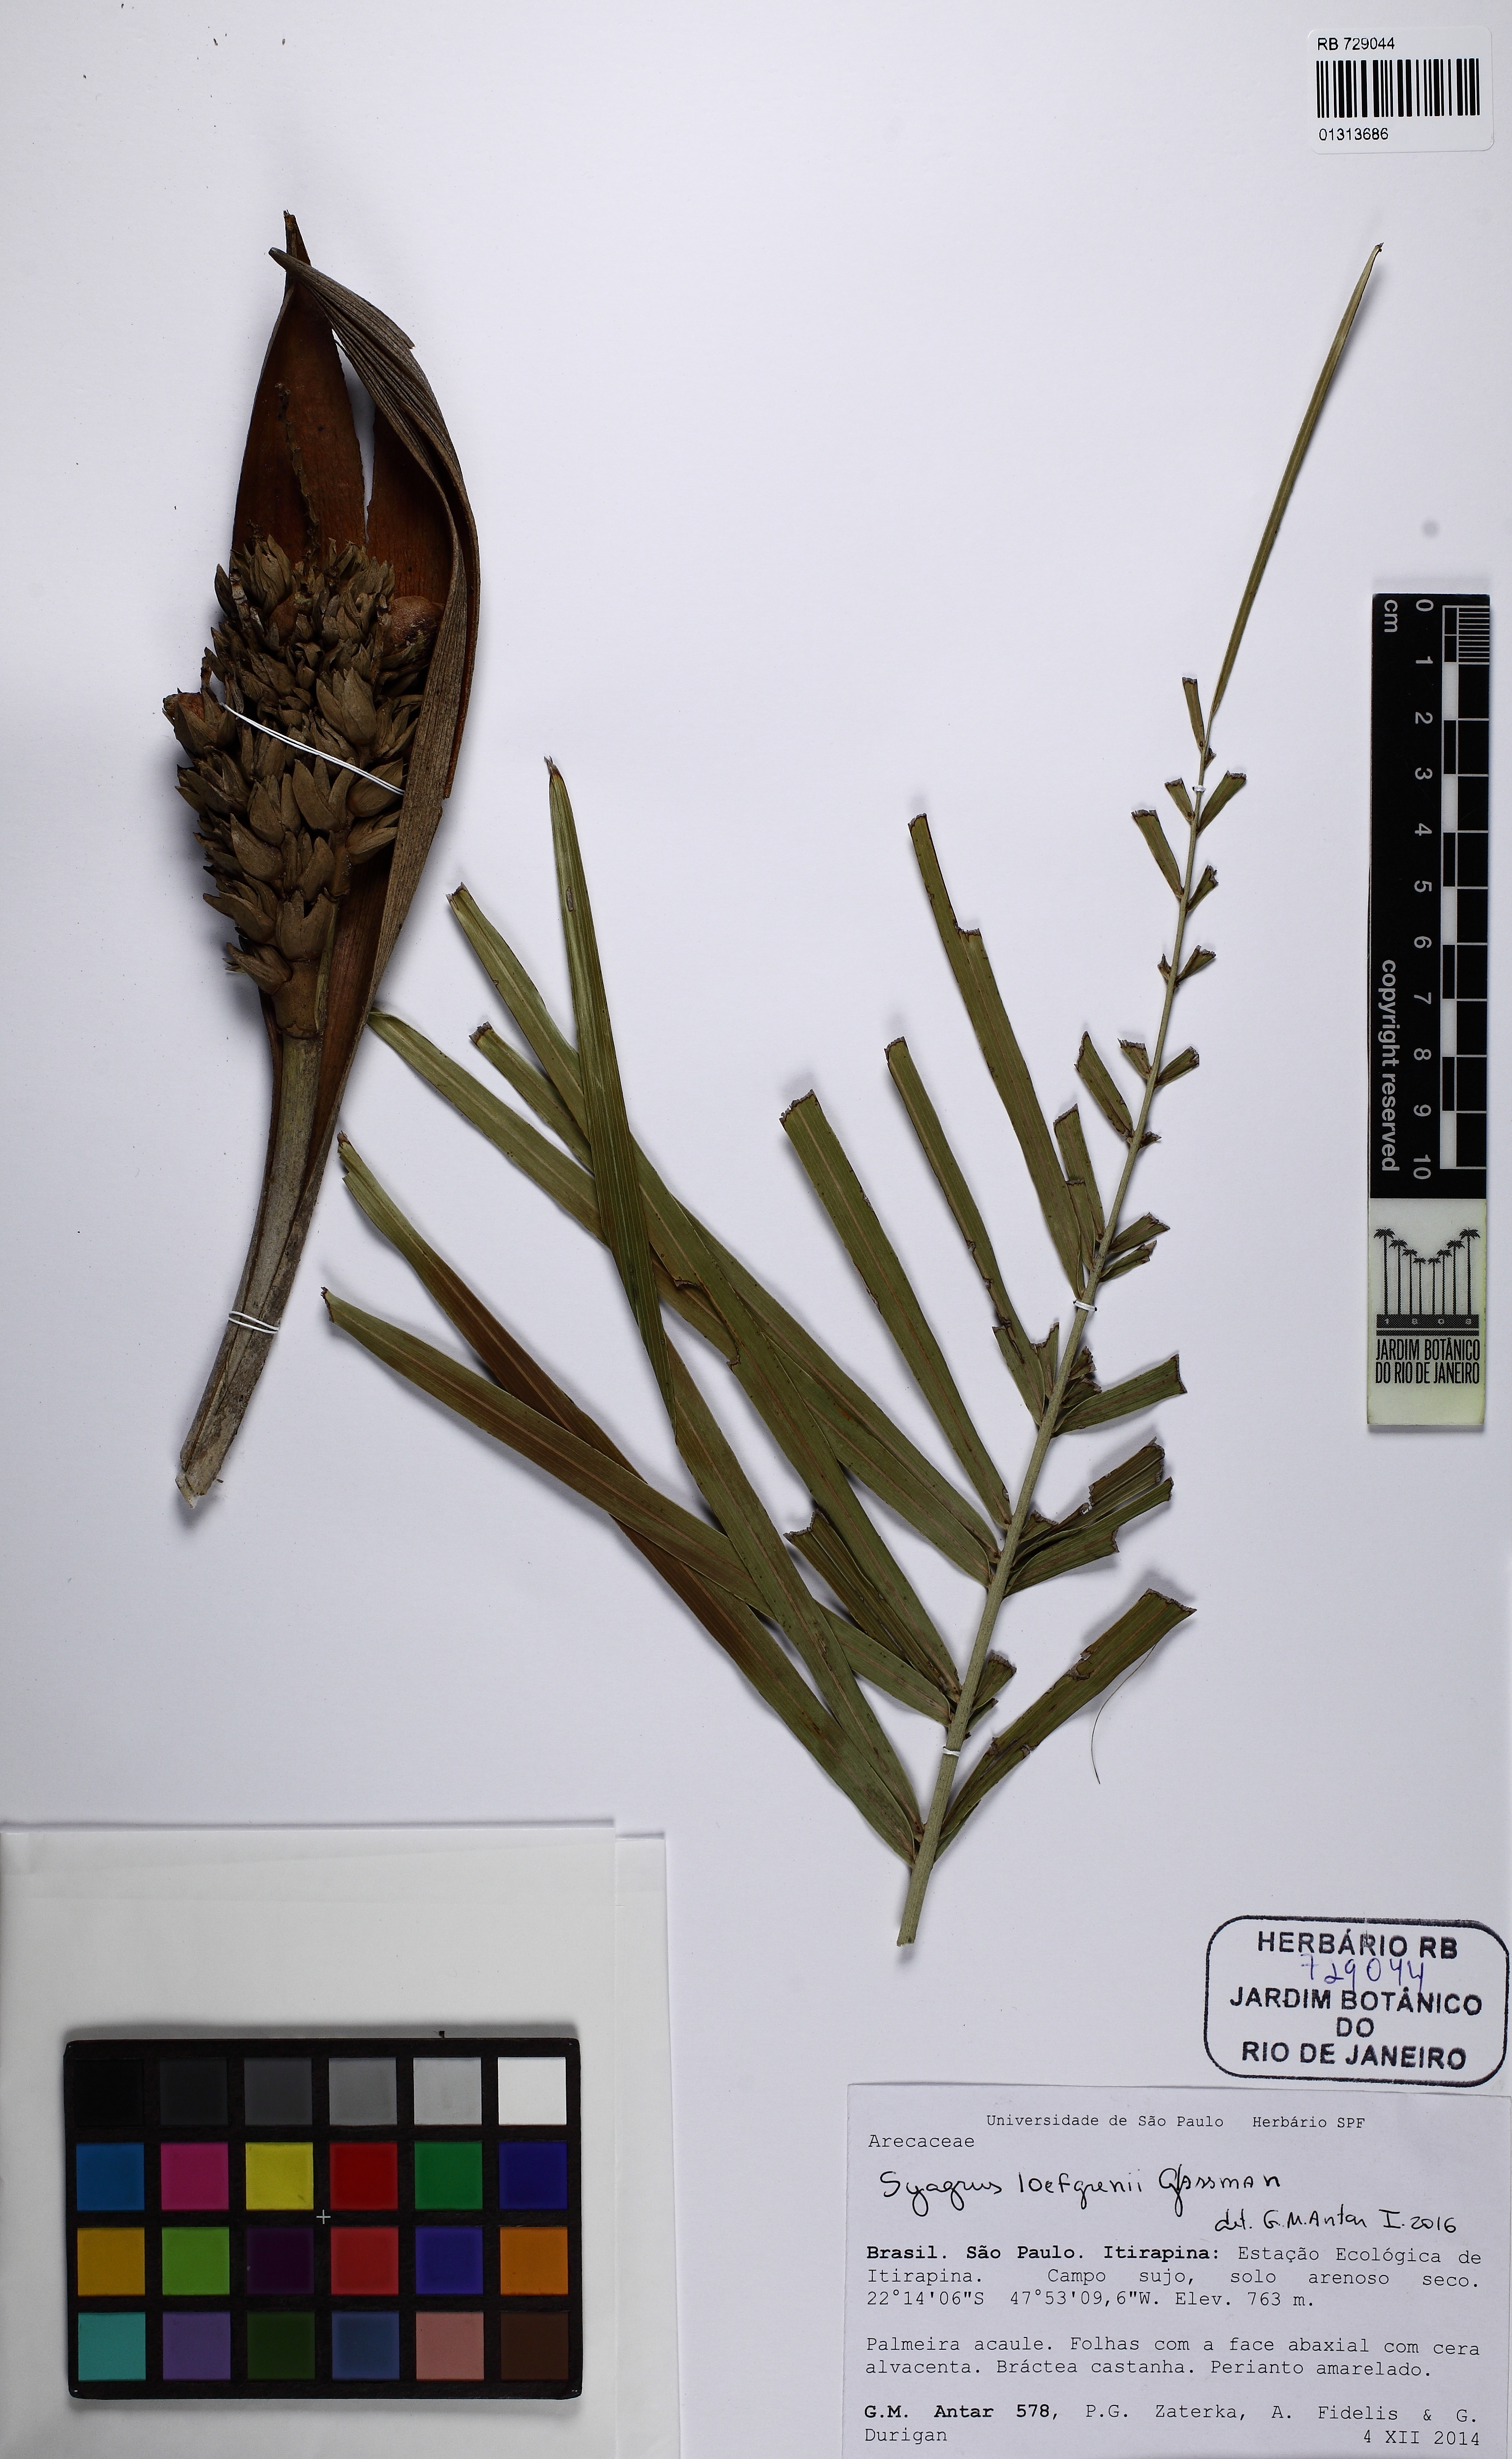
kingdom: Plantae
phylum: Tracheophyta
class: Liliopsida
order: Arecales
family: Arecaceae
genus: Syagrus
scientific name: Syagrus loefgrenii
